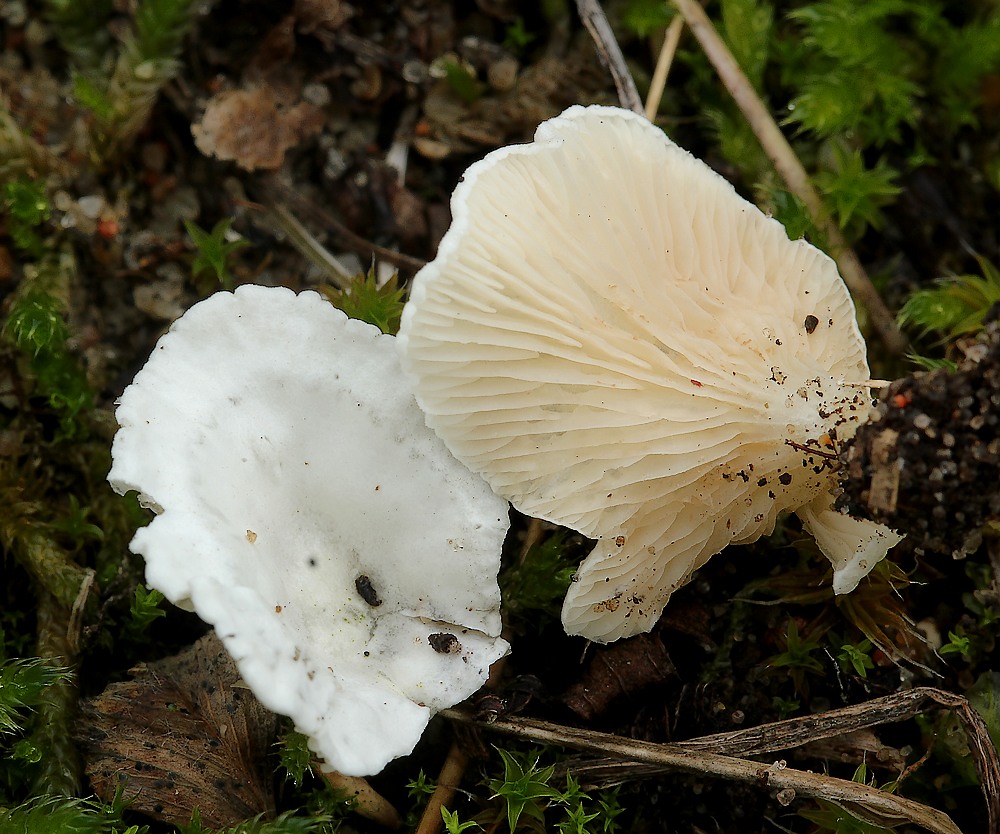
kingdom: Fungi
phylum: Basidiomycota
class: Agaricomycetes
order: Agaricales
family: Entolomataceae
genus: Clitopilus
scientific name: Clitopilus scyphoides
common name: spinkel melhat
